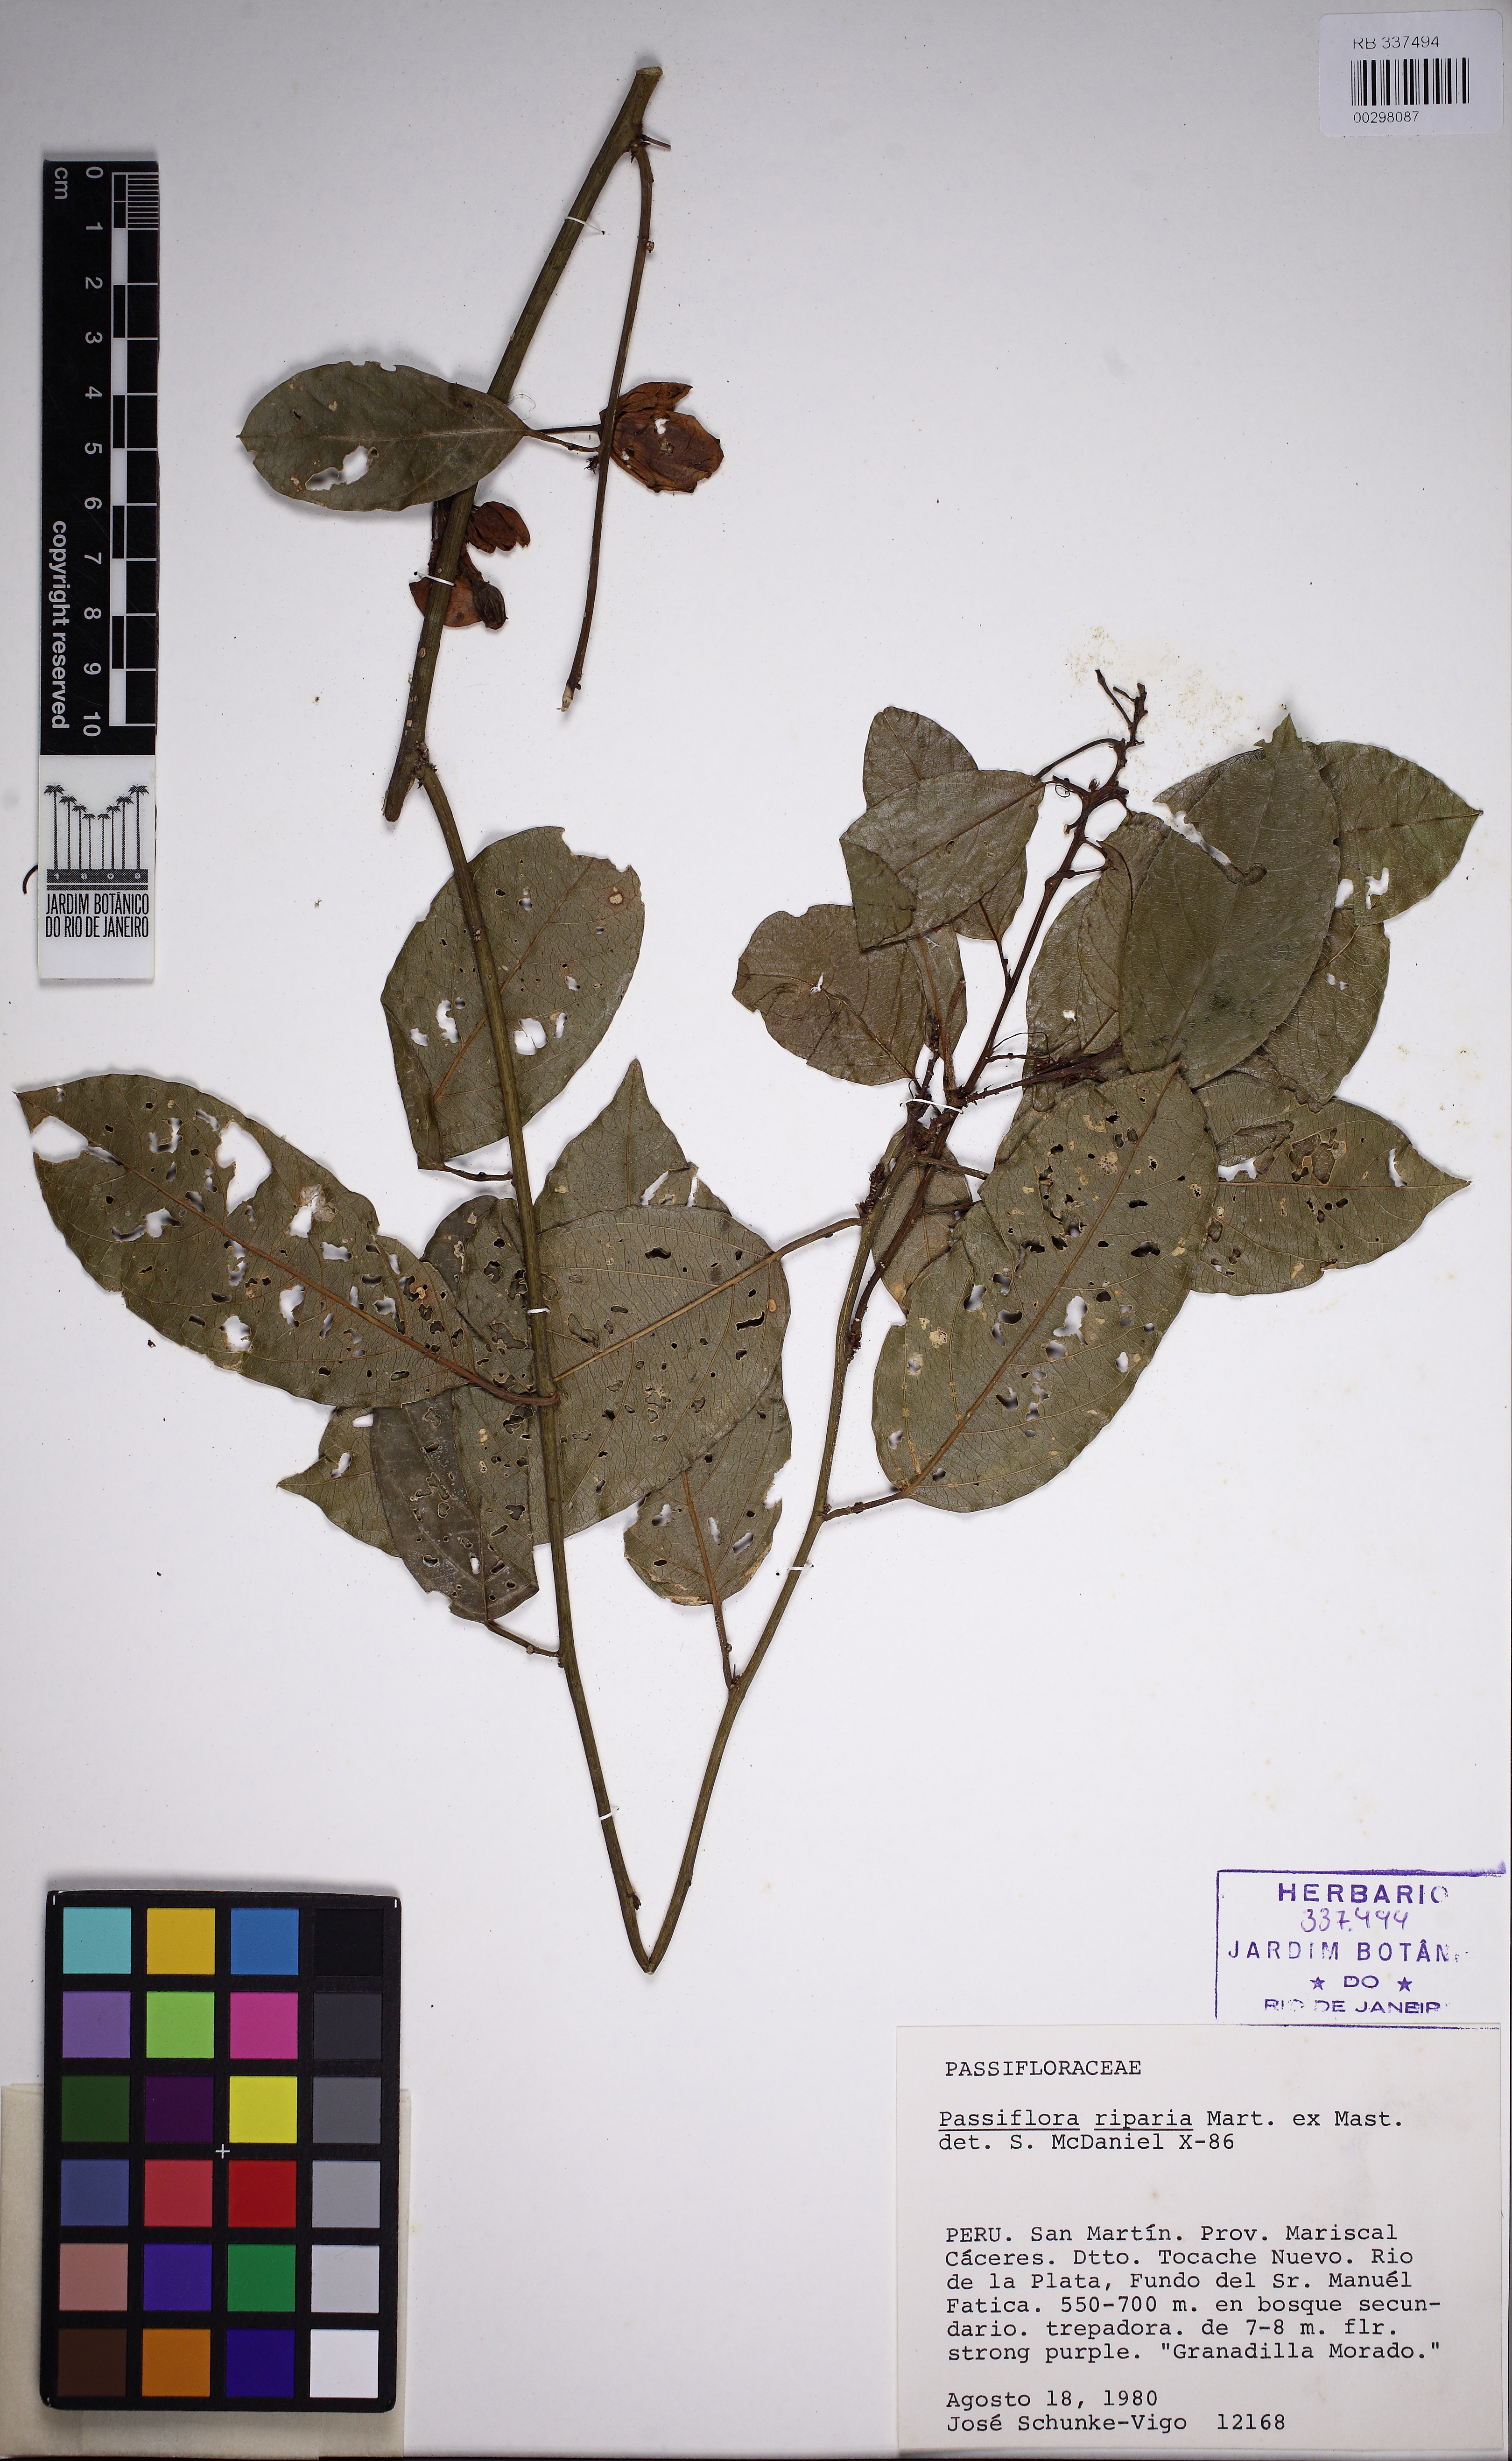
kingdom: Plantae
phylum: Tracheophyta
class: Magnoliopsida
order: Malpighiales
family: Passifloraceae
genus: Passiflora
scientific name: Passiflora riparia
